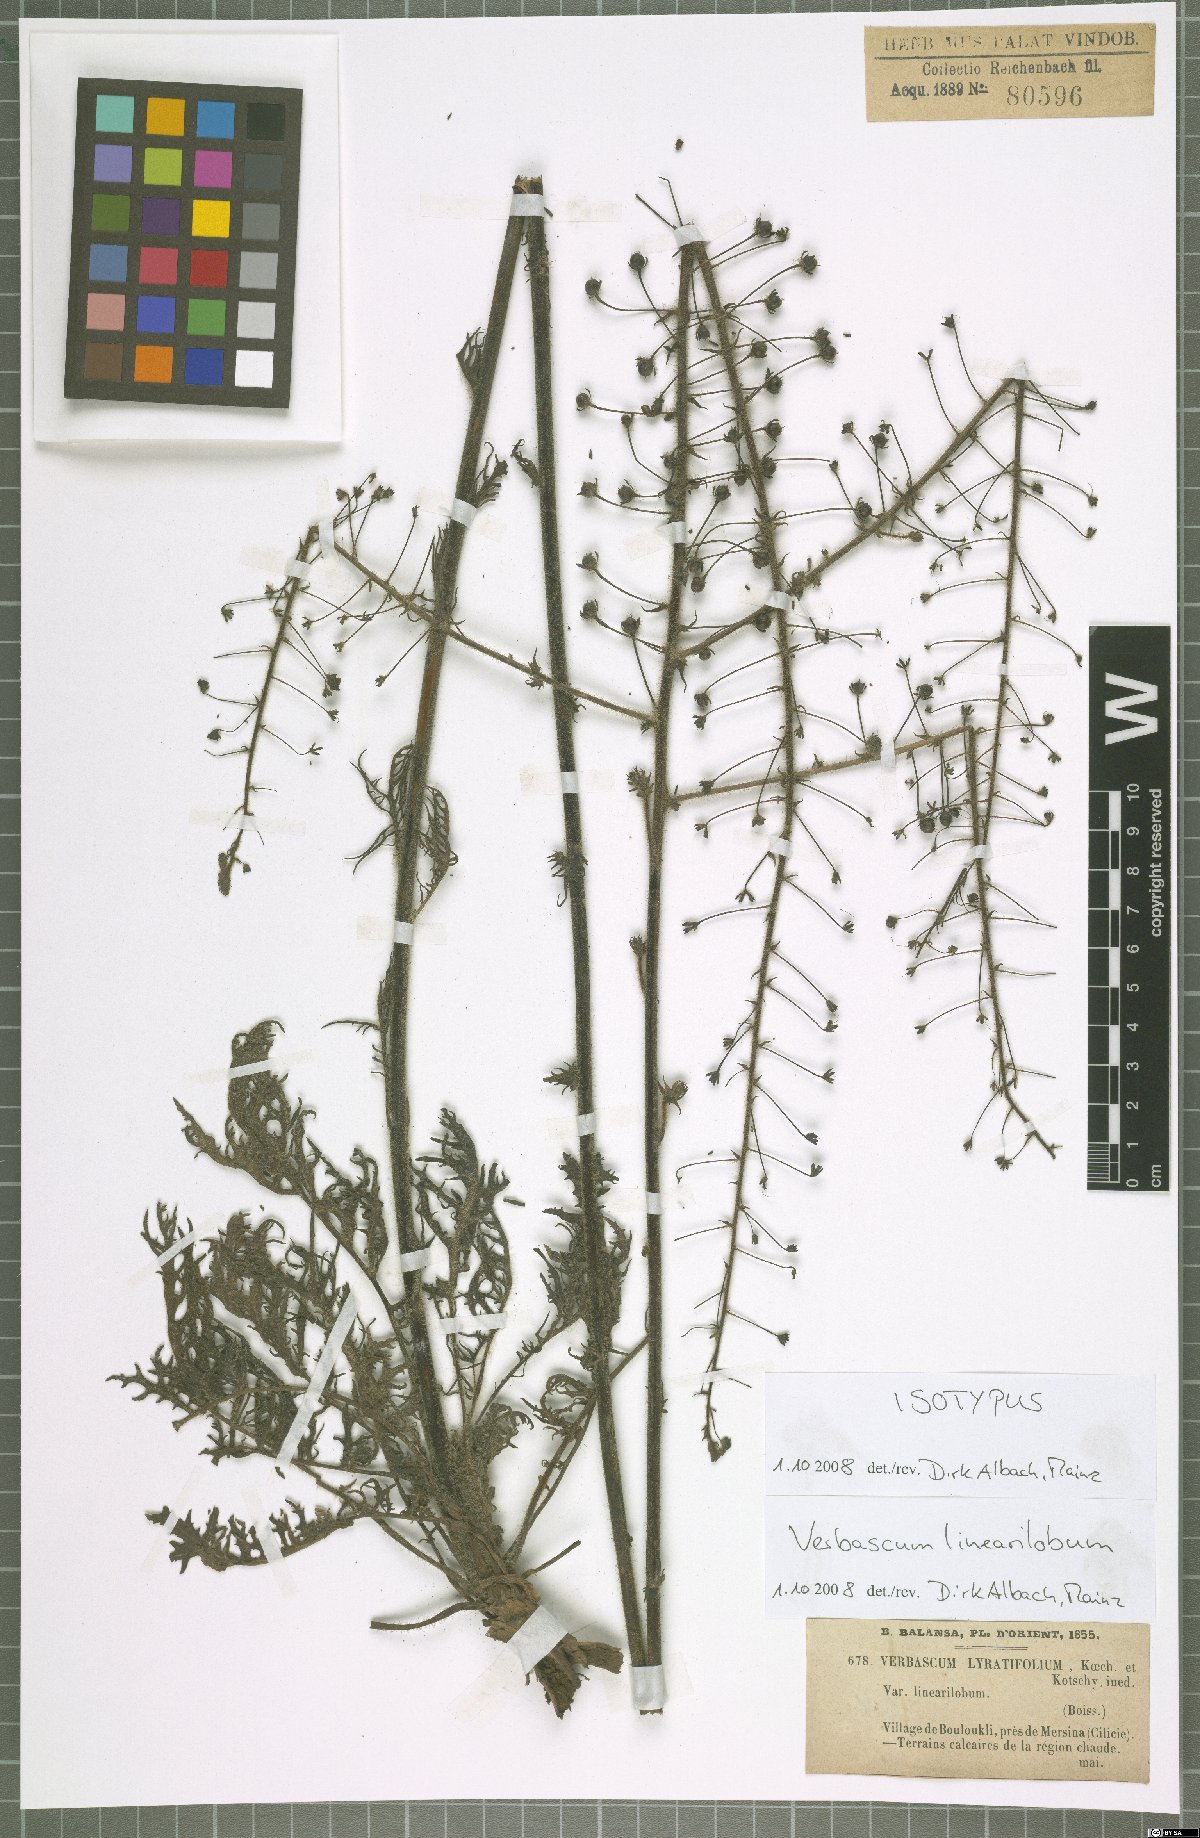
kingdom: Plantae
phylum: Tracheophyta
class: Magnoliopsida
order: Lamiales
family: Scrophulariaceae
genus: Verbascum
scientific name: Verbascum linearilobum
